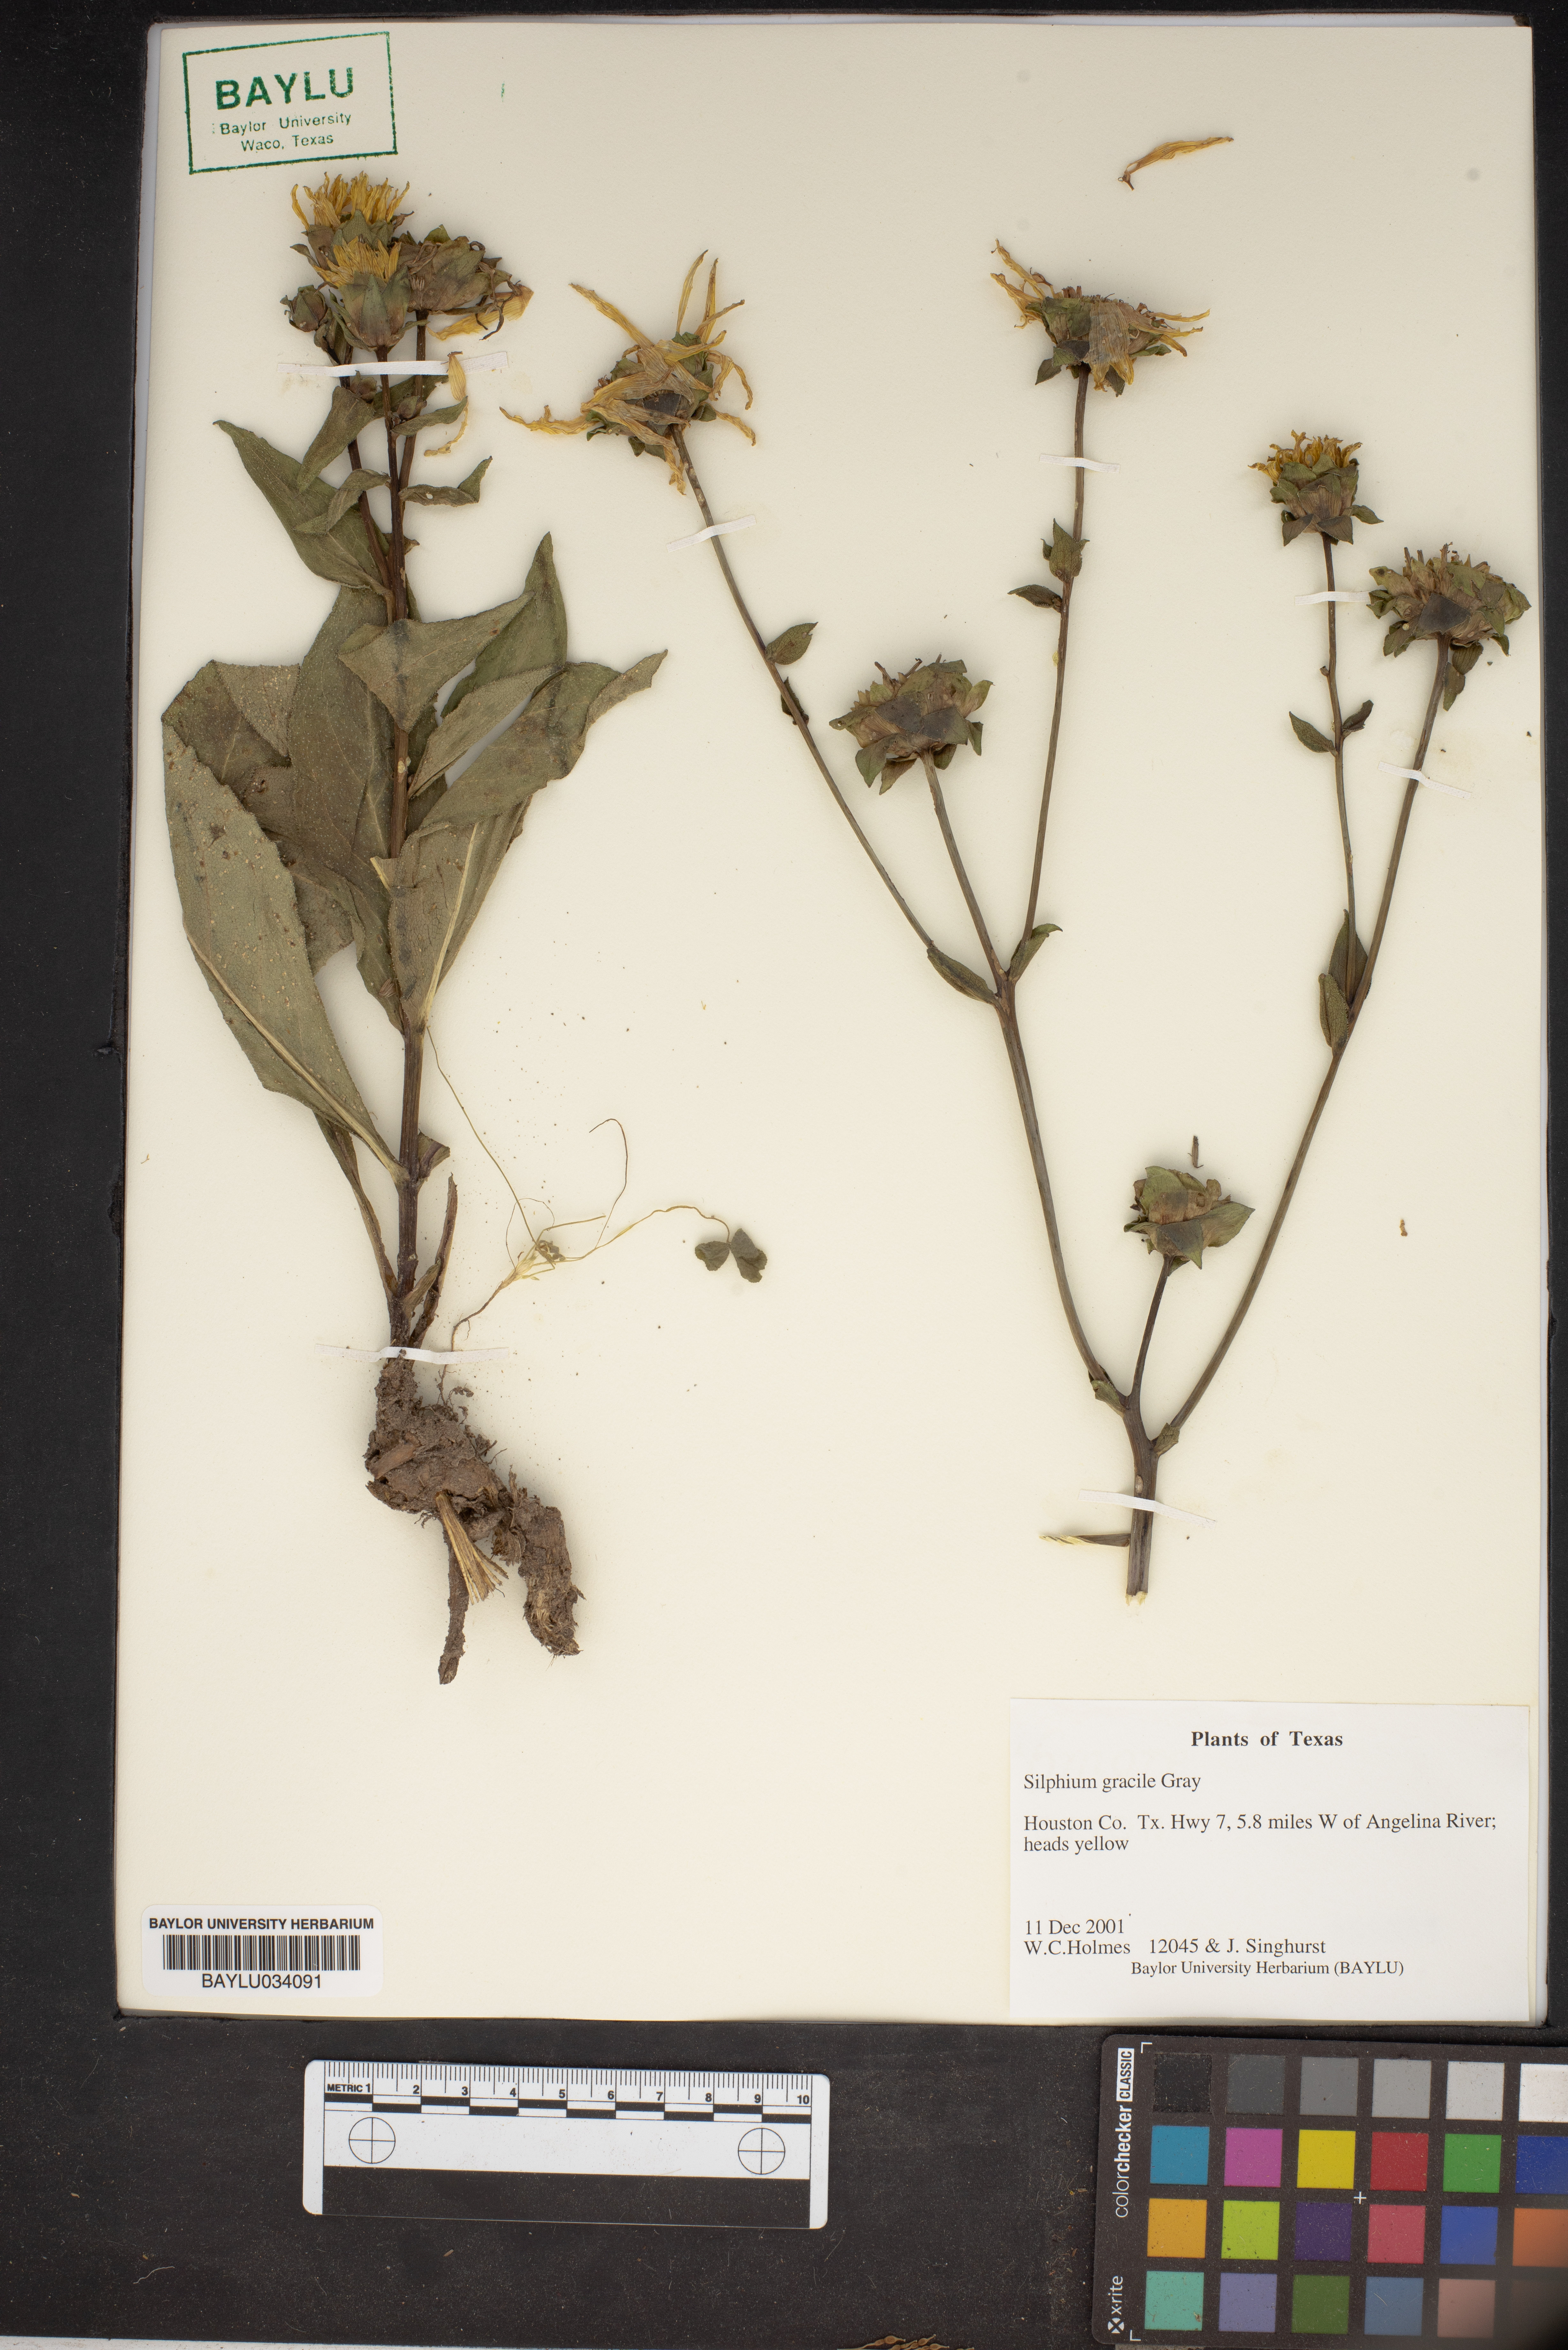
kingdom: Plantae
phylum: Tracheophyta
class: Magnoliopsida
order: Asterales
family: Asteraceae
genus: Silphium
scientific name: Silphium radula
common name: Roughleaf rosinweed
